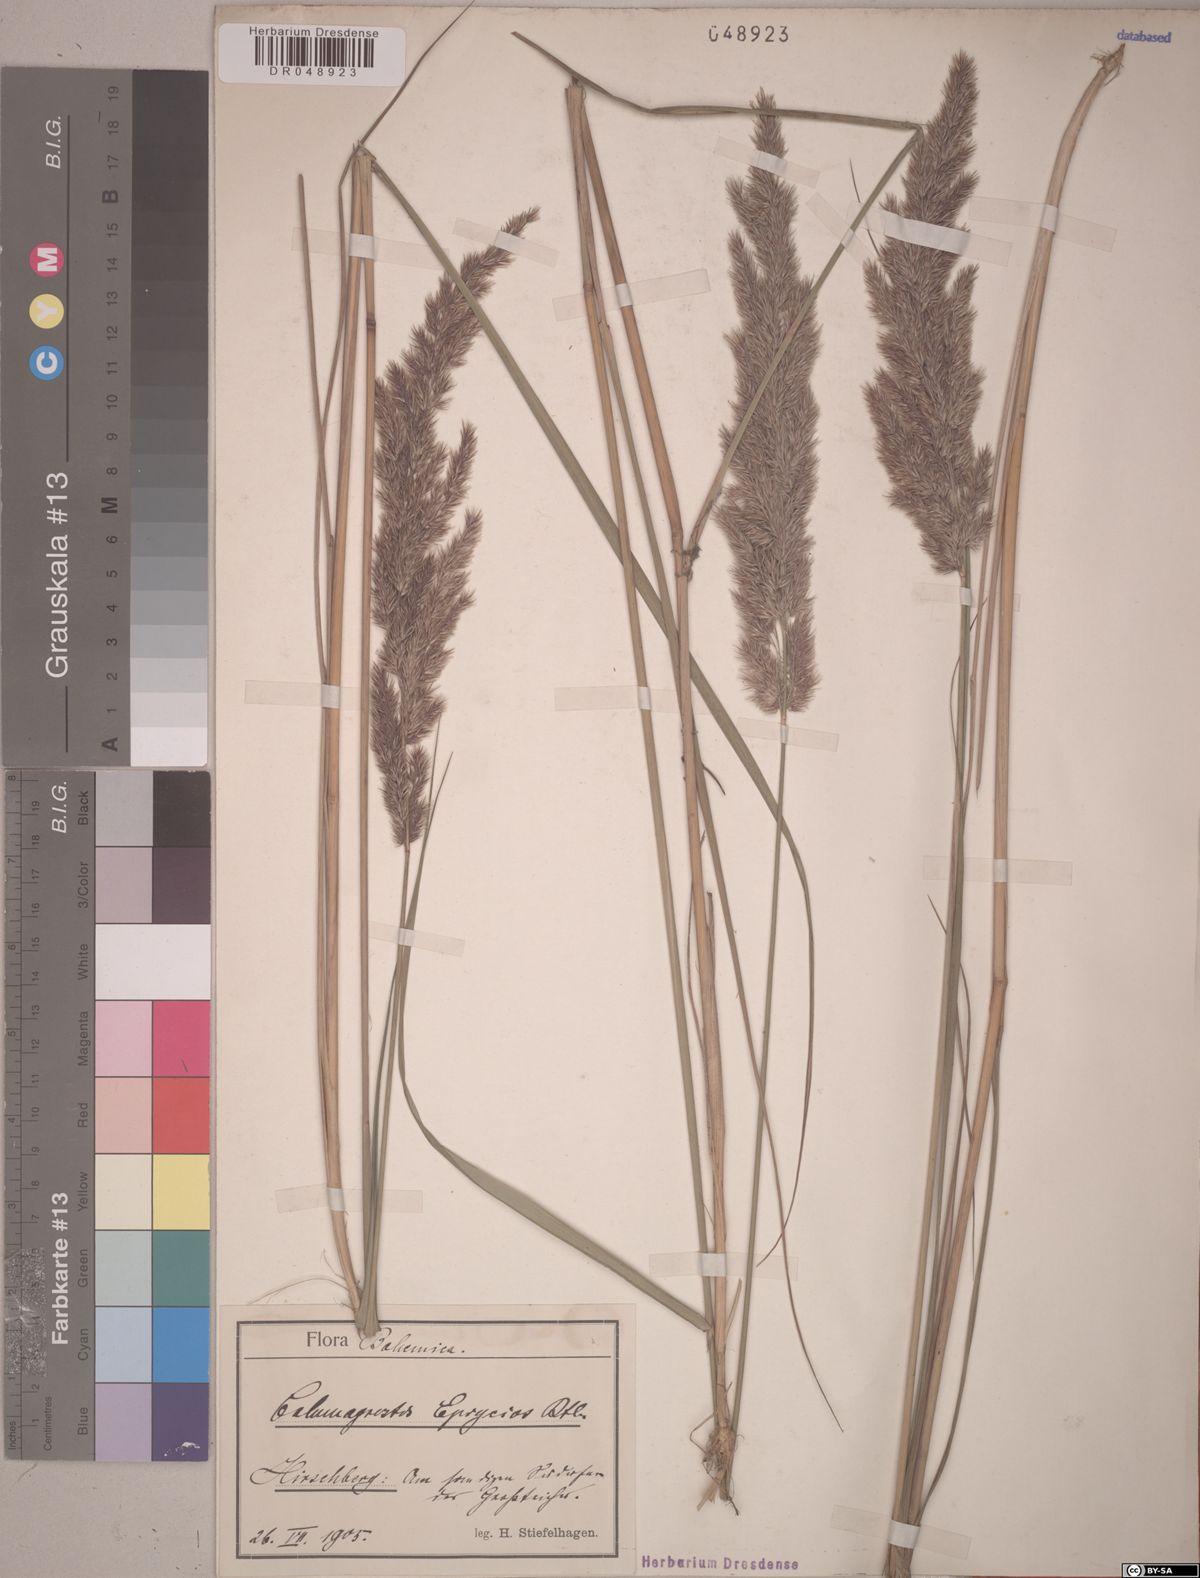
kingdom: Plantae
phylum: Tracheophyta
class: Liliopsida
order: Poales
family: Poaceae
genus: Calamagrostis
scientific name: Calamagrostis epigejos
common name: Wood small-reed
